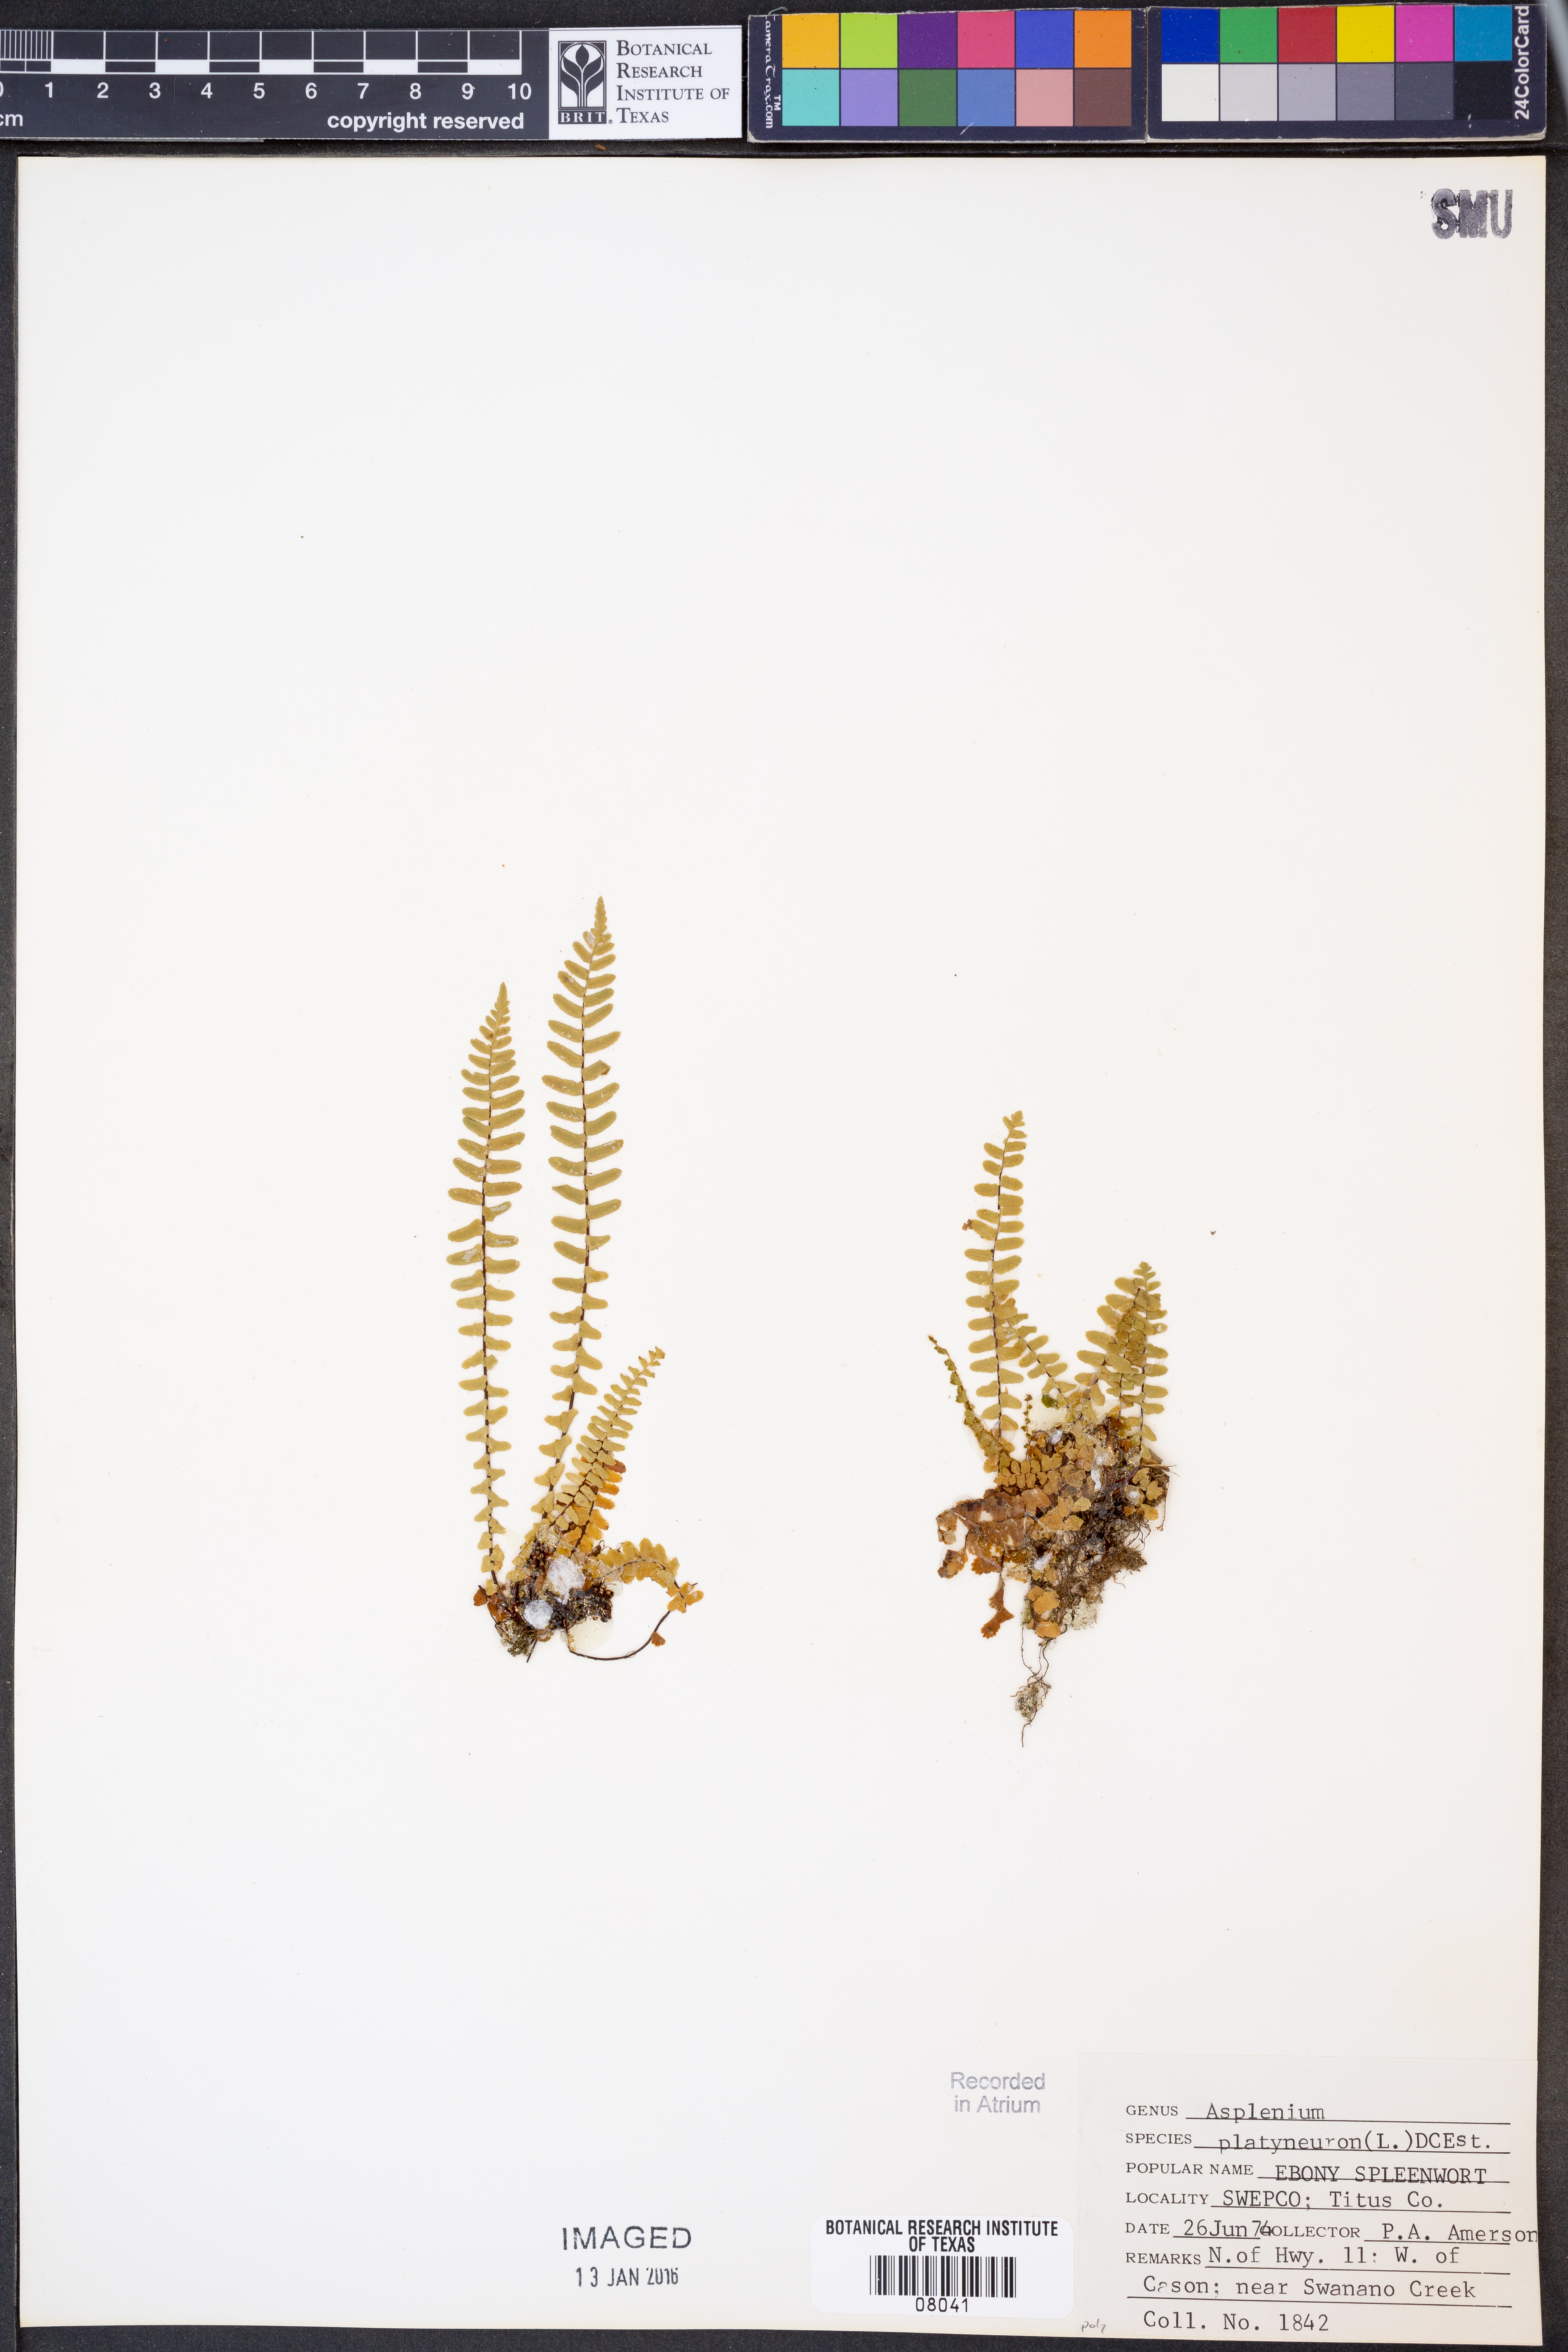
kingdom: Plantae
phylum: Tracheophyta
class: Polypodiopsida
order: Polypodiales
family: Aspleniaceae
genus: Asplenium
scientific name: Asplenium platyneuron
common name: Ebony spleenwort
